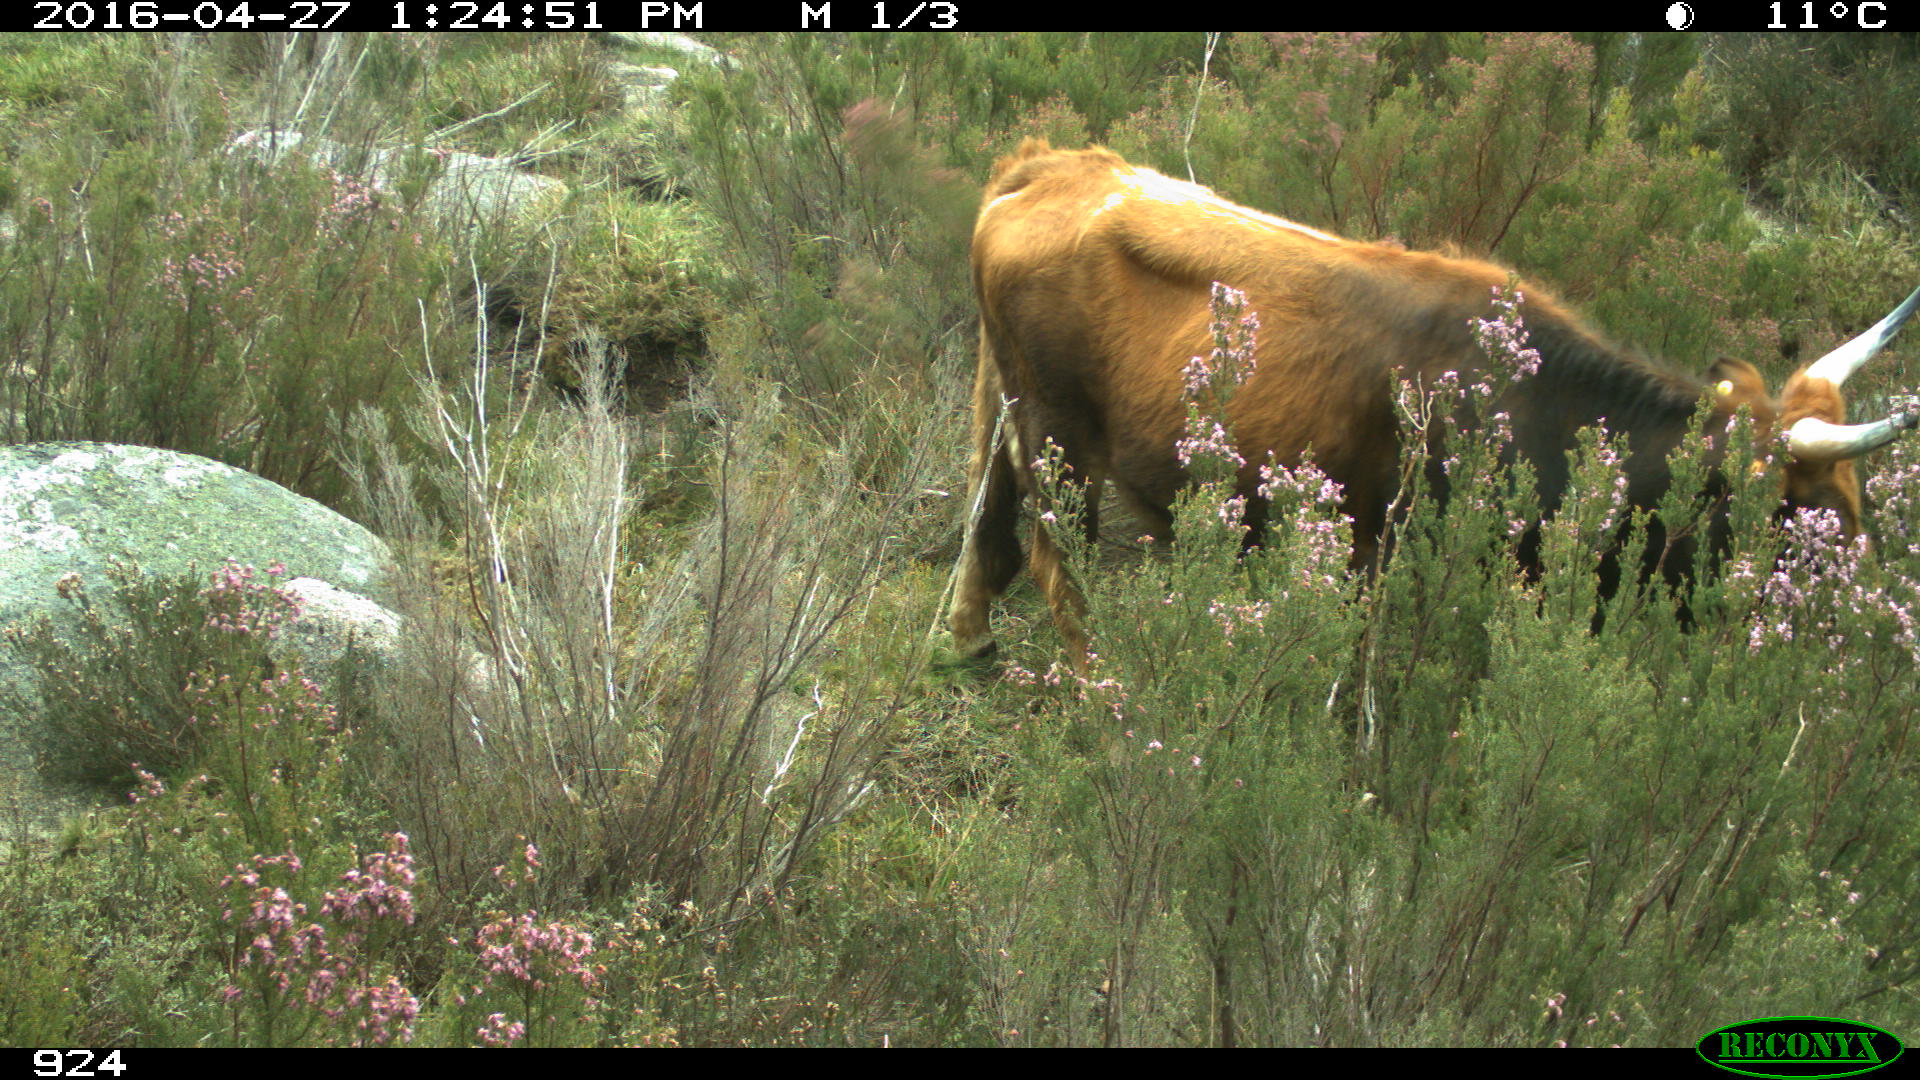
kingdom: Animalia
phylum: Chordata
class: Mammalia
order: Artiodactyla
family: Bovidae
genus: Bos
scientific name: Bos taurus
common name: Domesticated cattle
